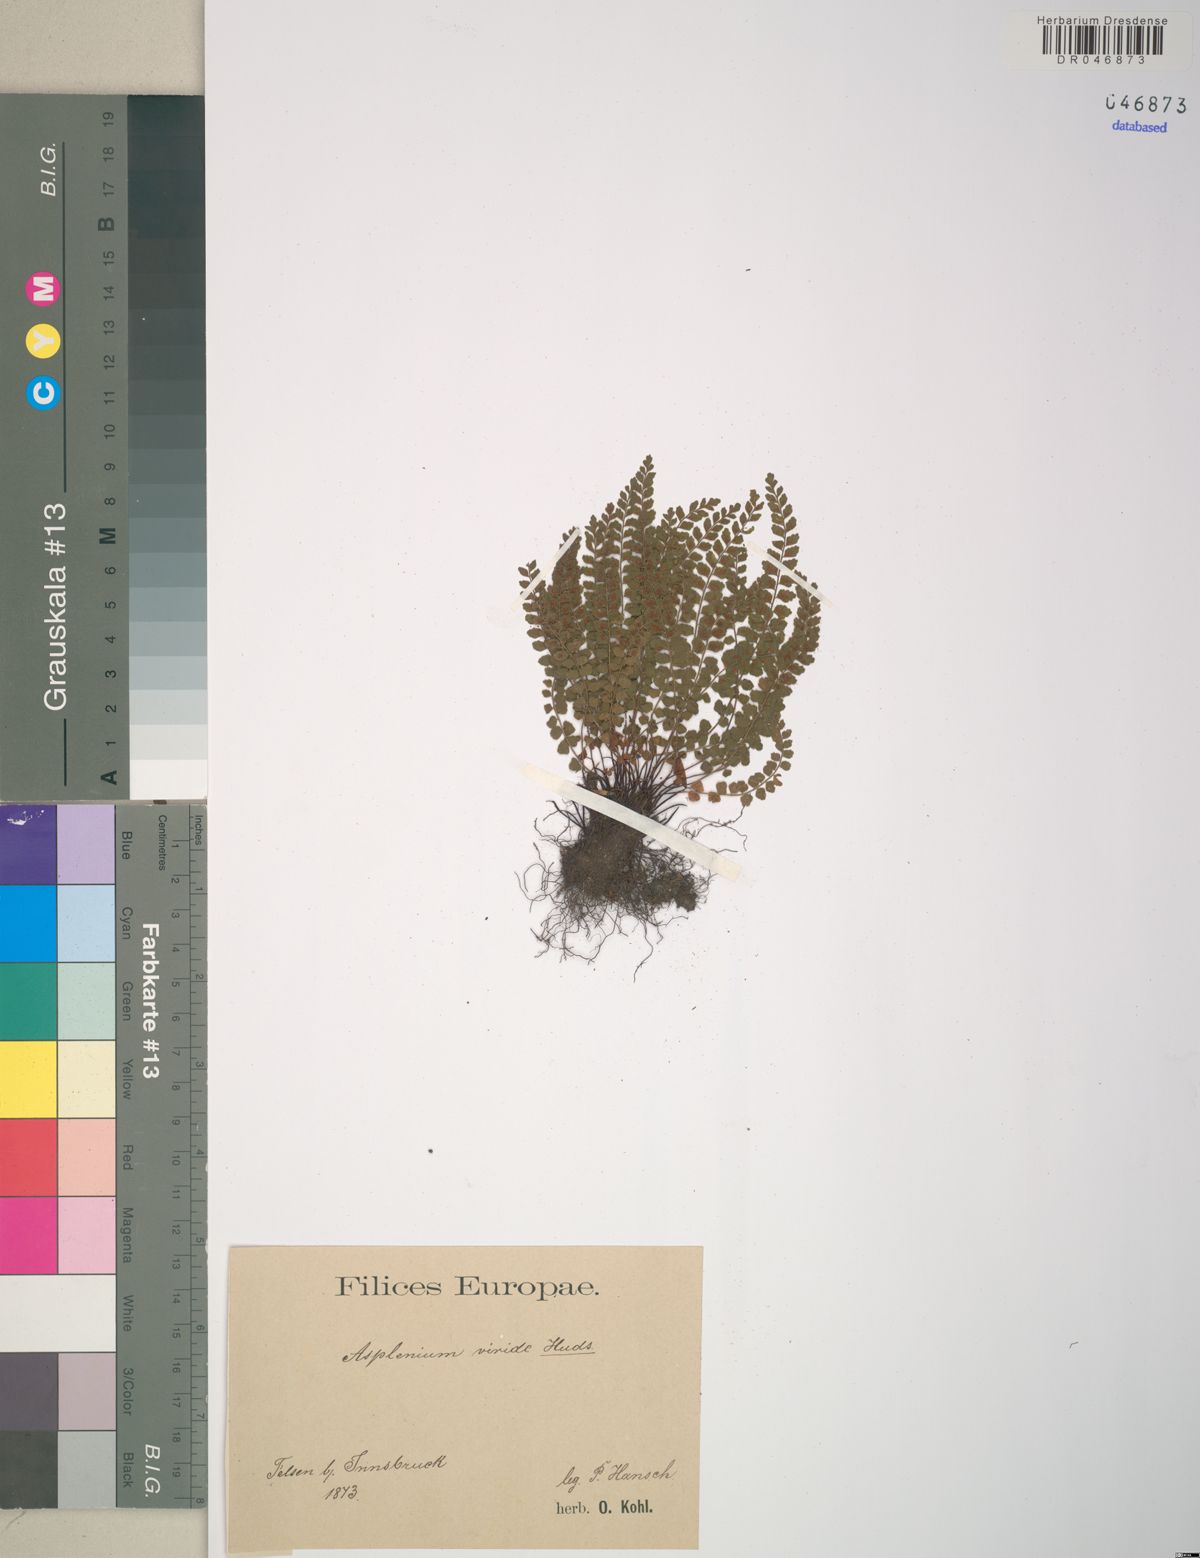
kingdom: Plantae
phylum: Tracheophyta
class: Polypodiopsida
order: Polypodiales
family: Aspleniaceae
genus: Asplenium
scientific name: Asplenium viride
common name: Green spleenwort
